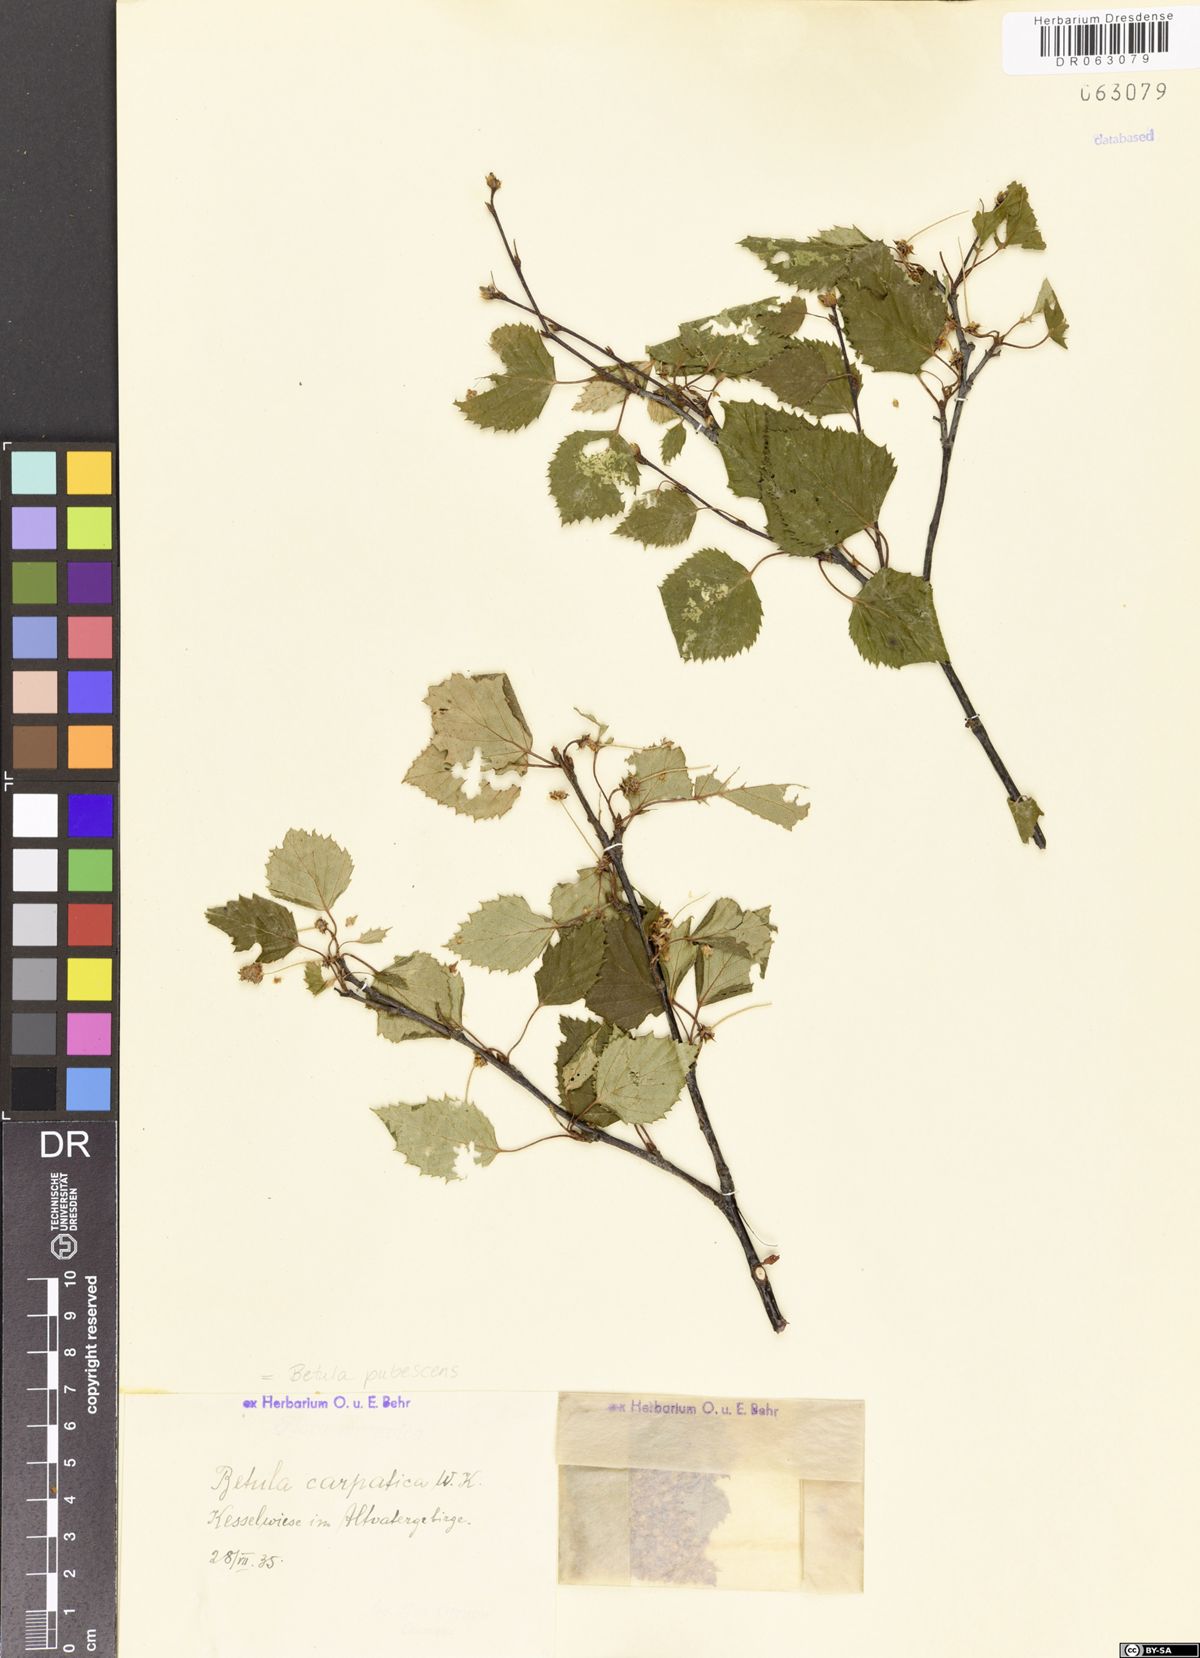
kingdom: Plantae
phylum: Tracheophyta
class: Magnoliopsida
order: Fagales
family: Betulaceae
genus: Betula
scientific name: Betula pubescens
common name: Downy birch
